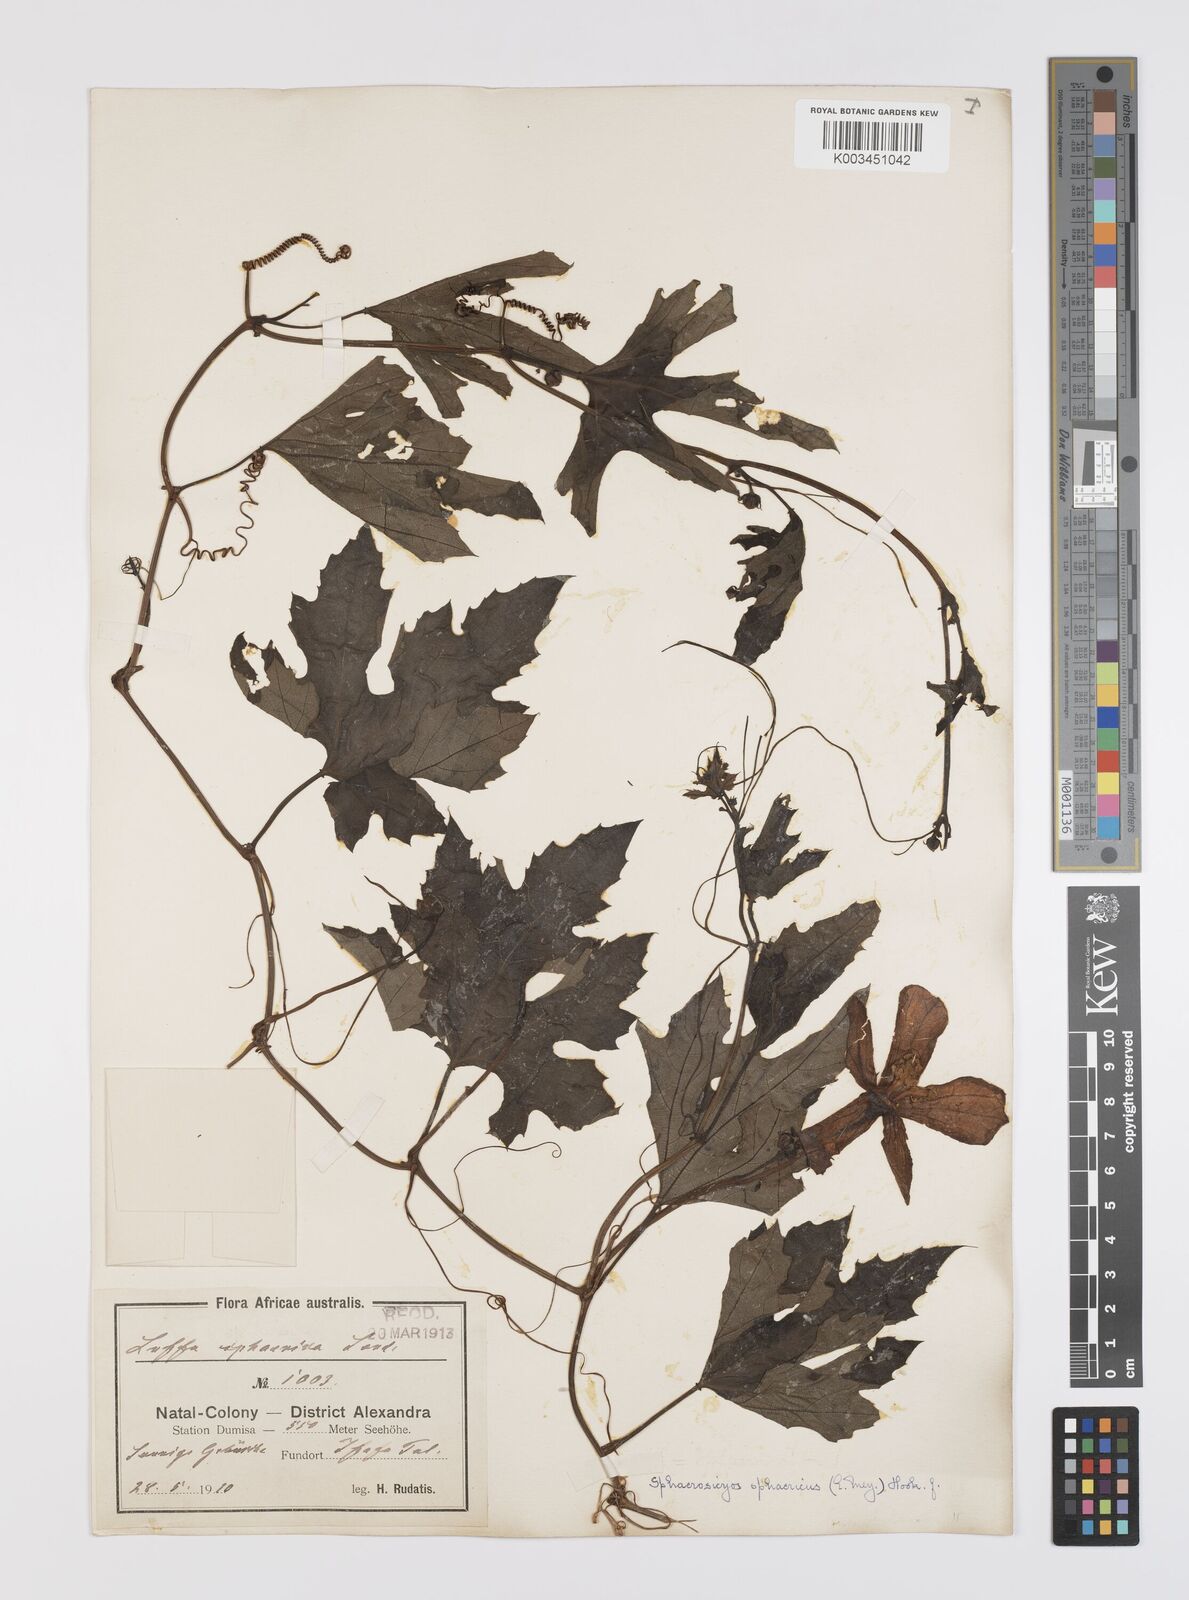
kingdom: Plantae
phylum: Tracheophyta
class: Magnoliopsida
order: Cucurbitales
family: Cucurbitaceae
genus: Lagenaria
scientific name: Lagenaria sphaerica
